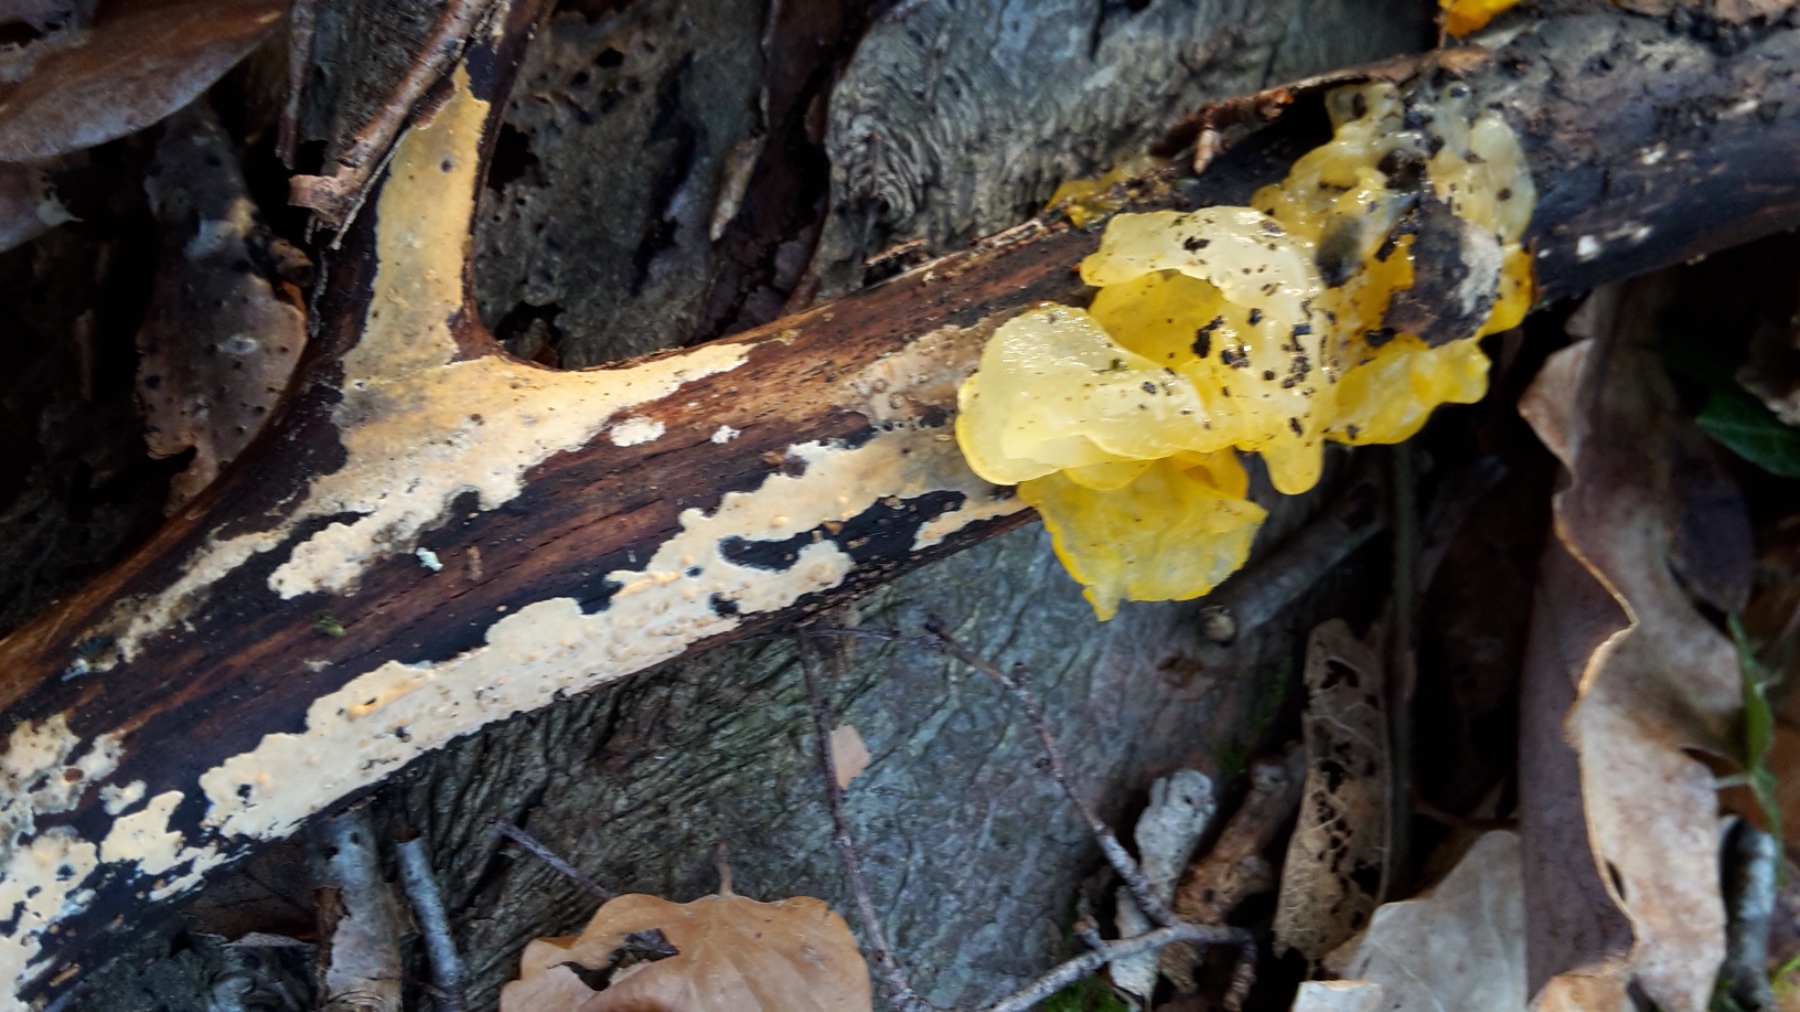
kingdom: Fungi
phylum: Basidiomycota
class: Agaricomycetes
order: Russulales
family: Peniophoraceae
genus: Peniophora
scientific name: Peniophora incarnata
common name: laksefarvet voksskind
